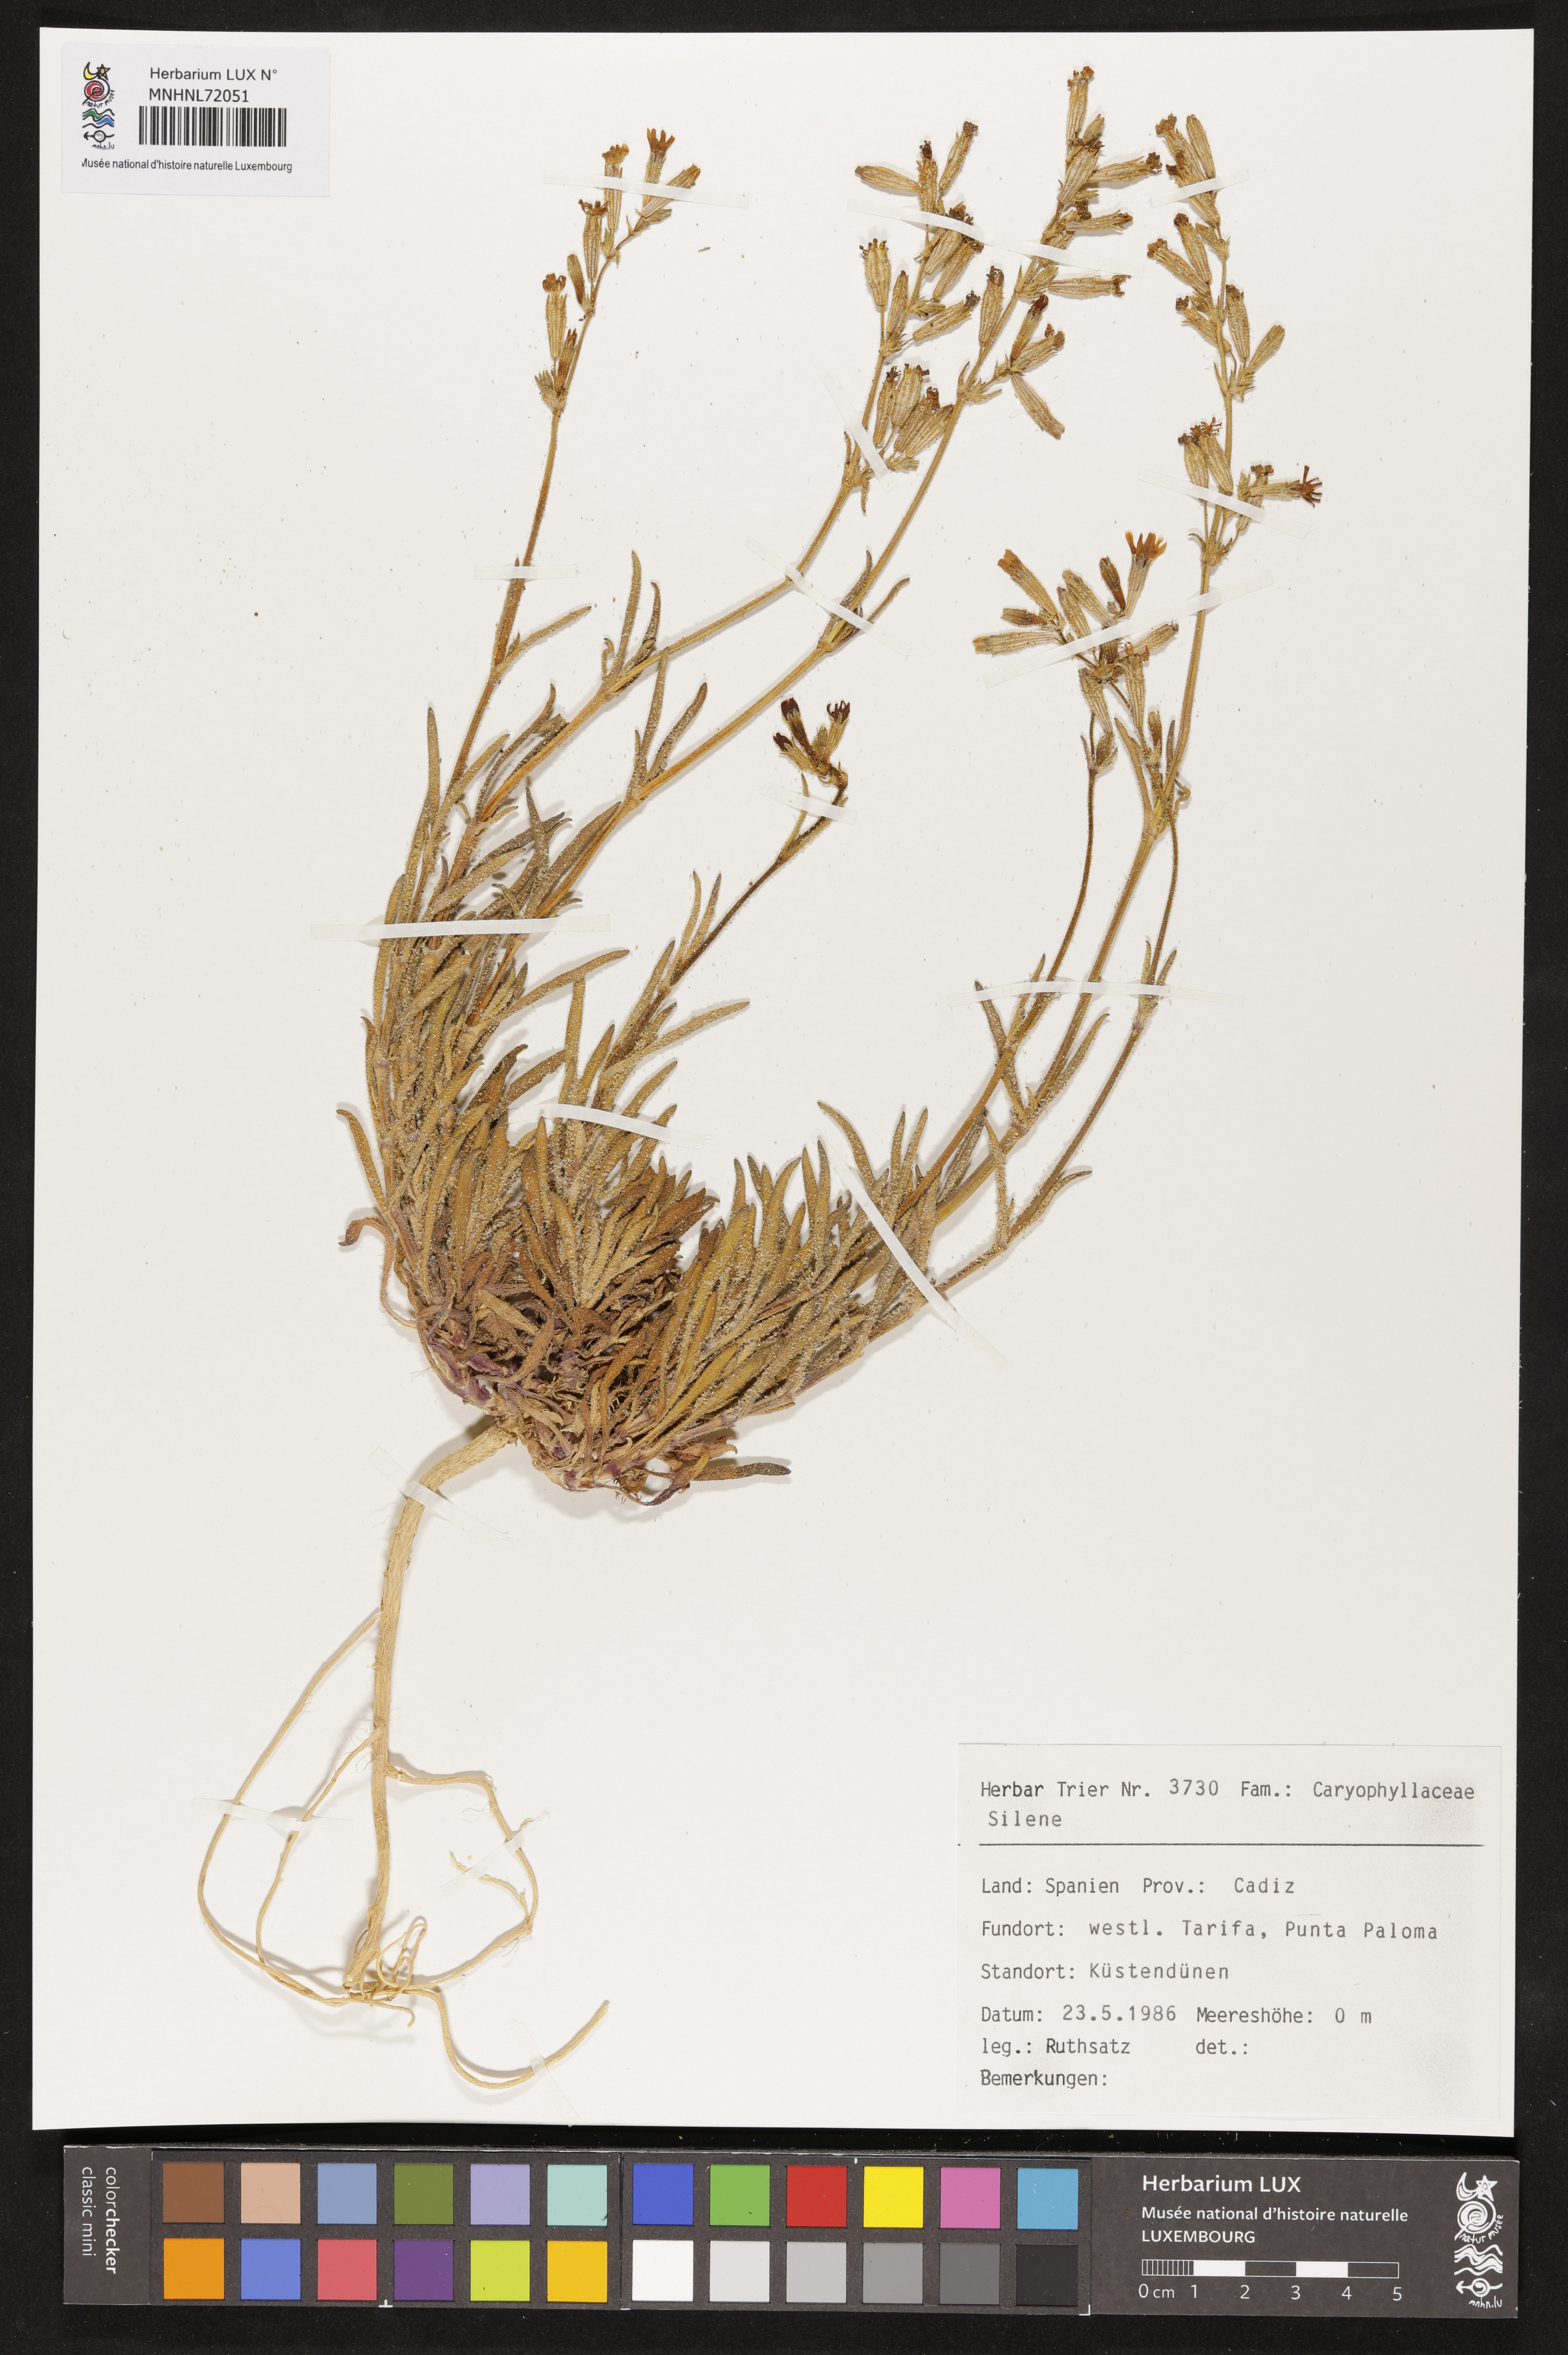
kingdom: Plantae
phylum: Tracheophyta
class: Magnoliopsida
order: Caryophyllales
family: Caryophyllaceae
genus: Silene
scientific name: Silene
